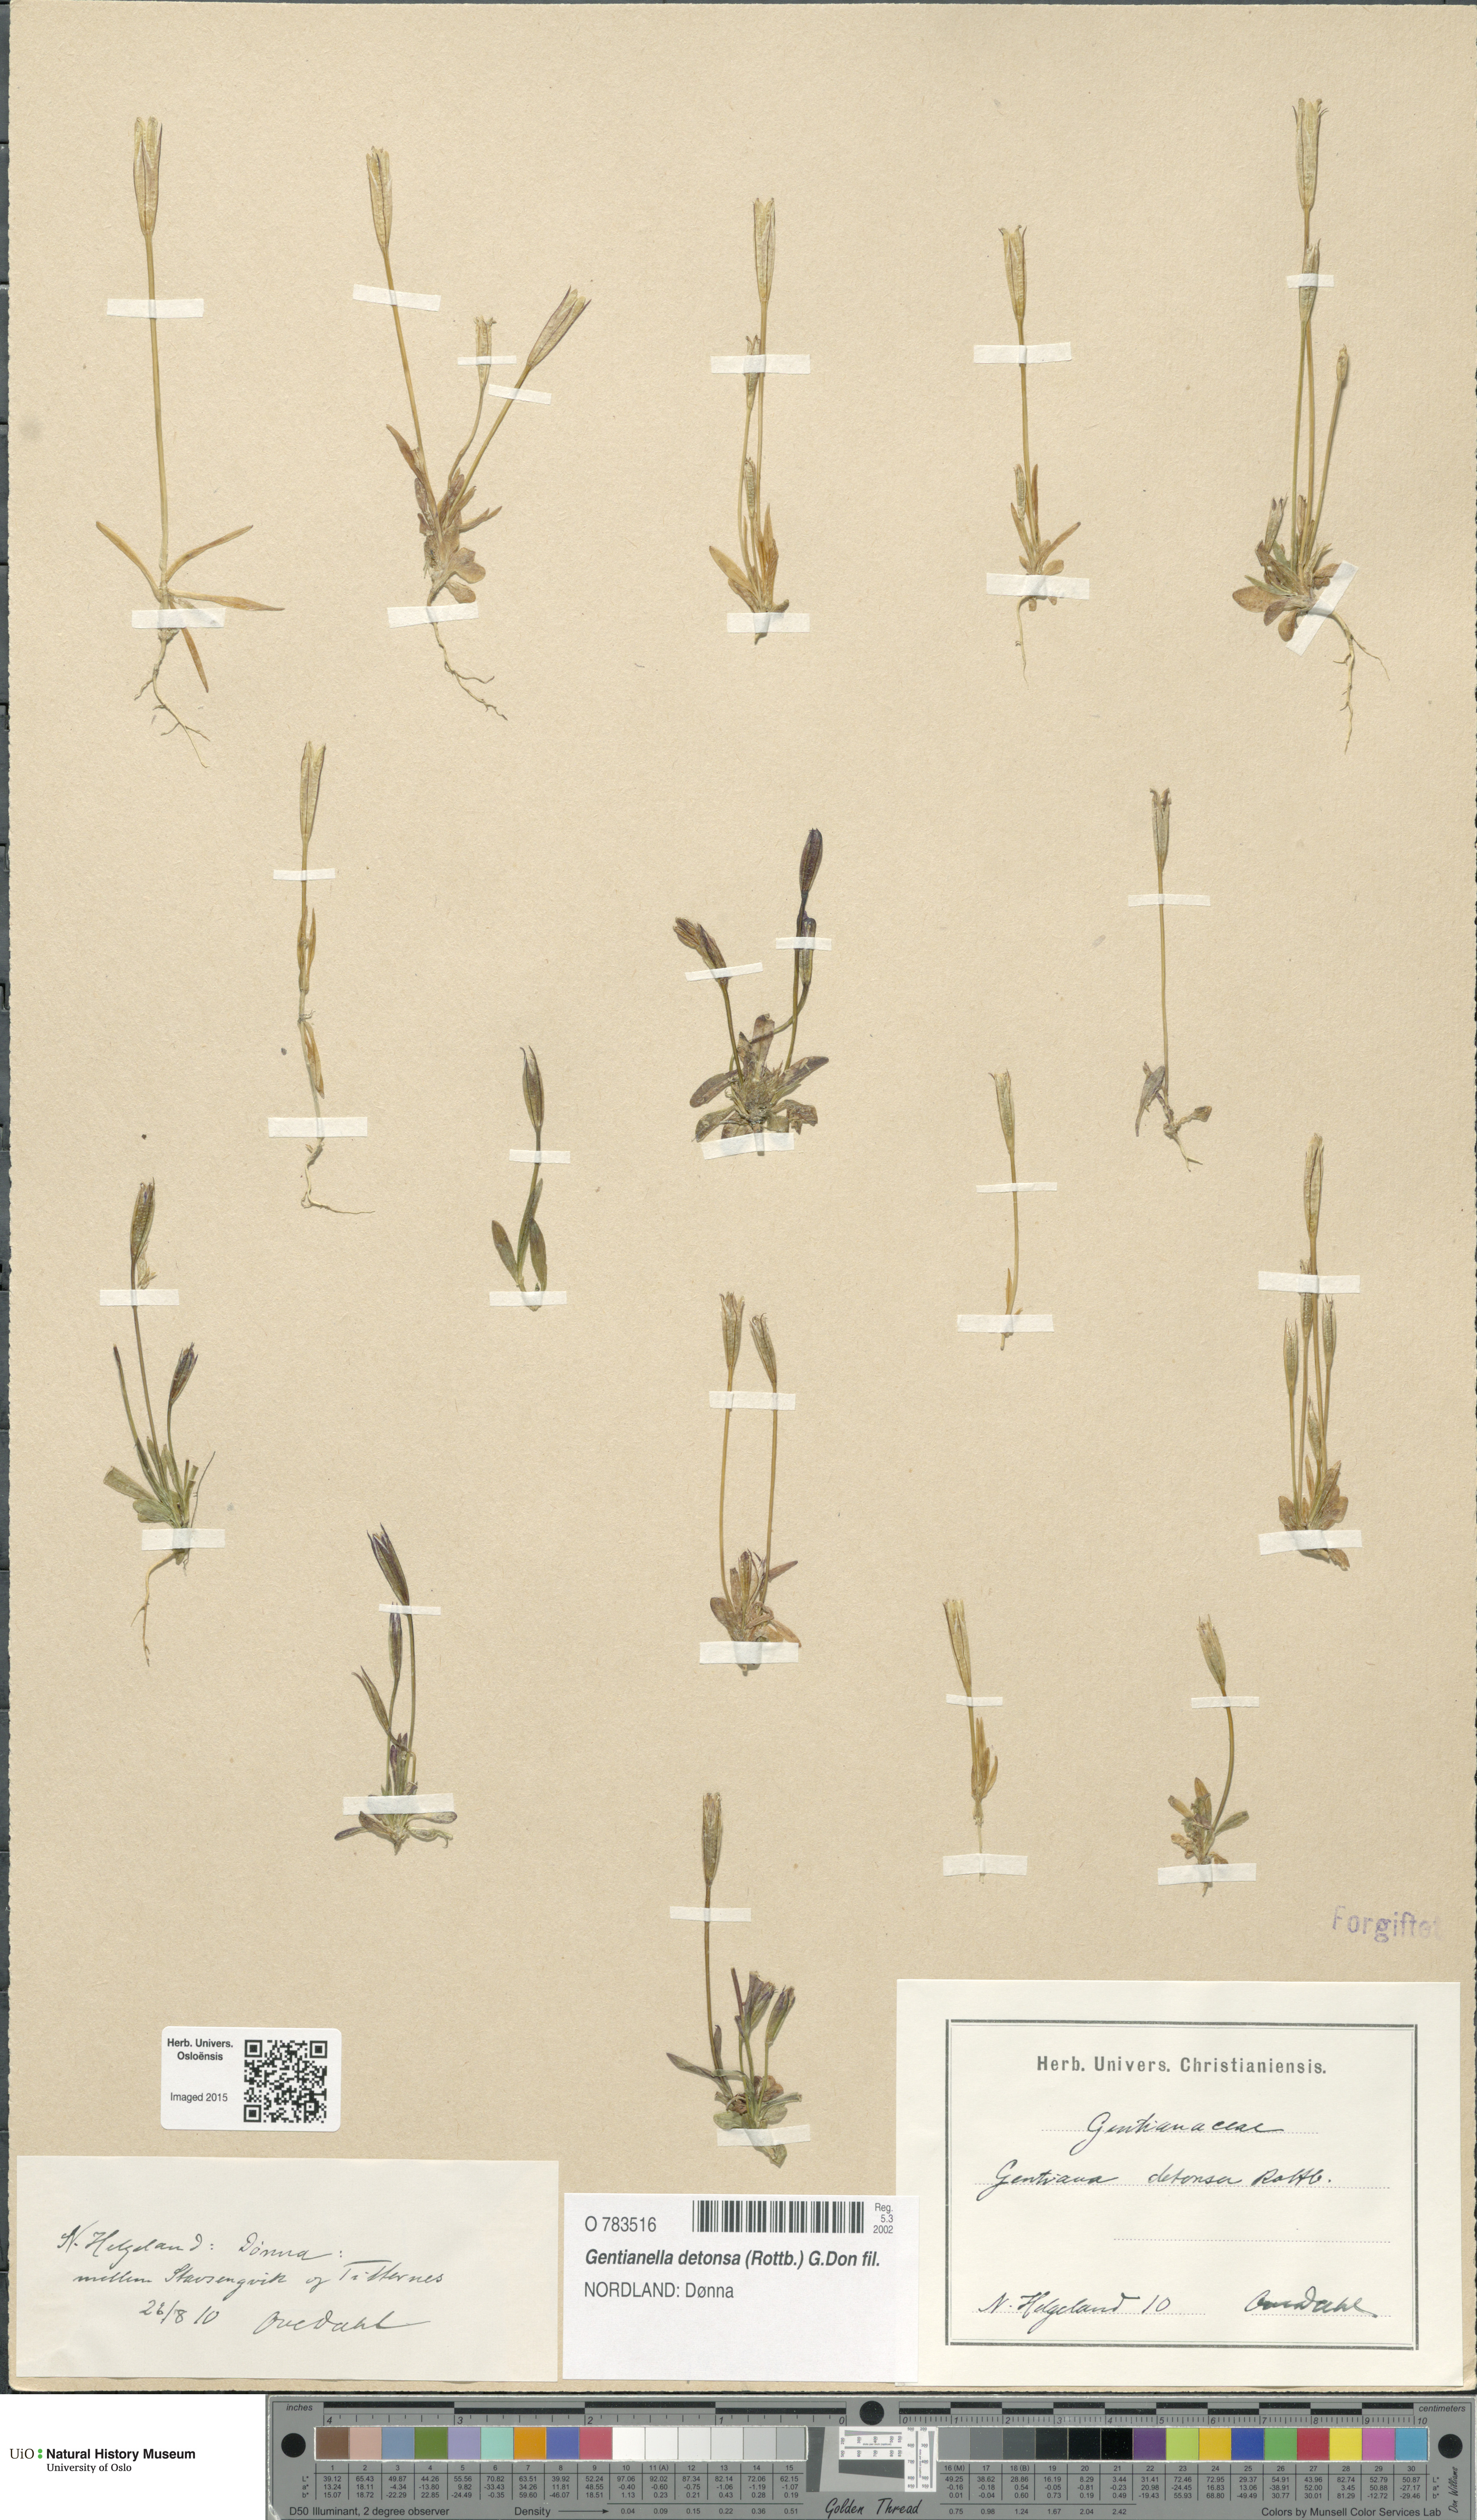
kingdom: Plantae
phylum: Tracheophyta
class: Magnoliopsida
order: Gentianales
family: Gentianaceae
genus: Gentianopsis
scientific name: Gentianopsis detonsa
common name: Fringed-gentian
